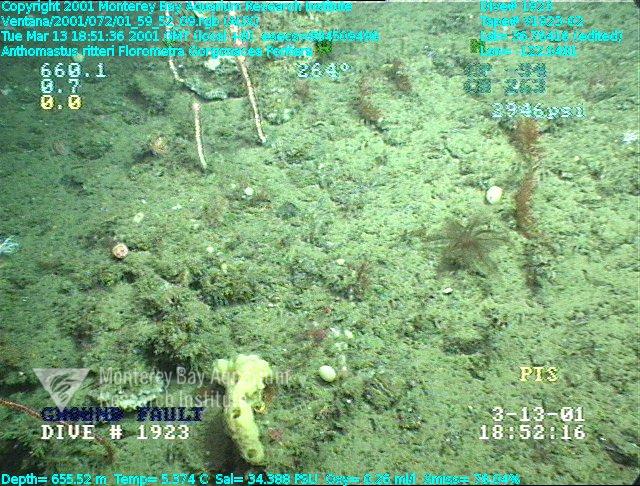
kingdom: Animalia
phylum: Porifera
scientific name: Porifera
